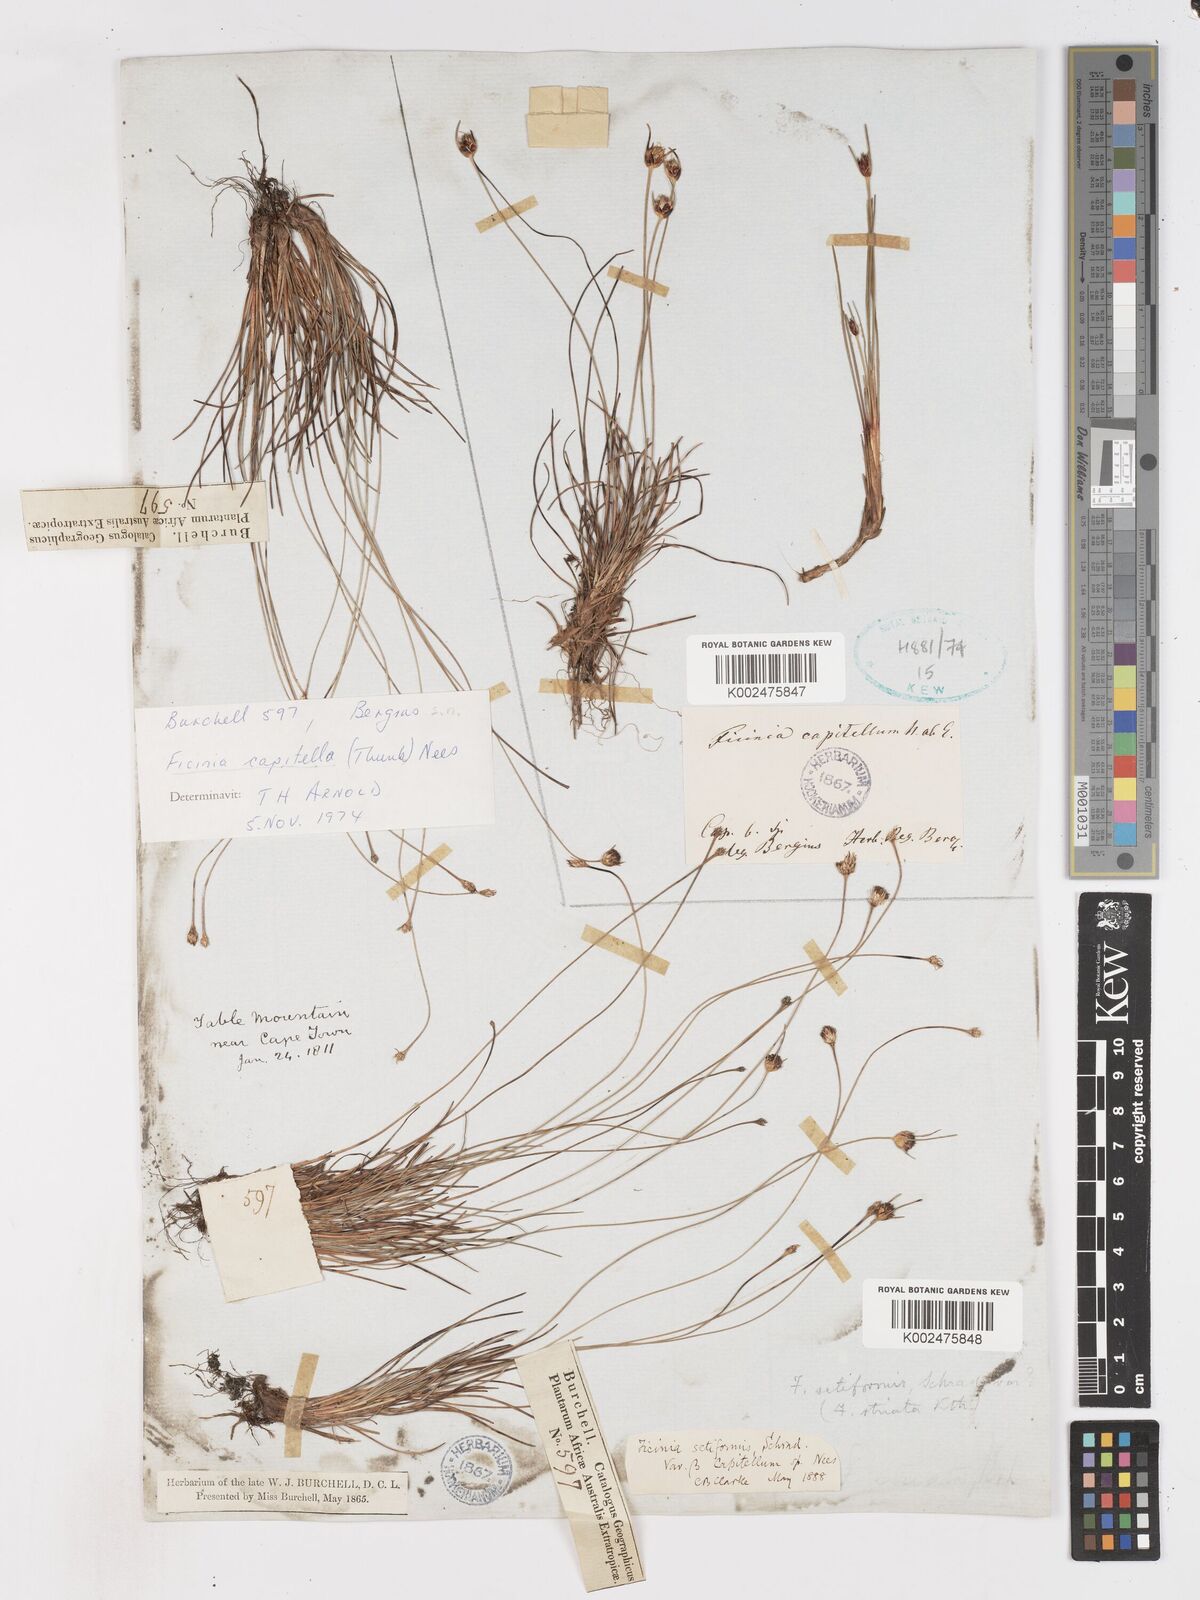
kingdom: Plantae
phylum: Tracheophyta
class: Liliopsida
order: Poales
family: Cyperaceae
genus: Ficinia
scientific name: Ficinia capitella
